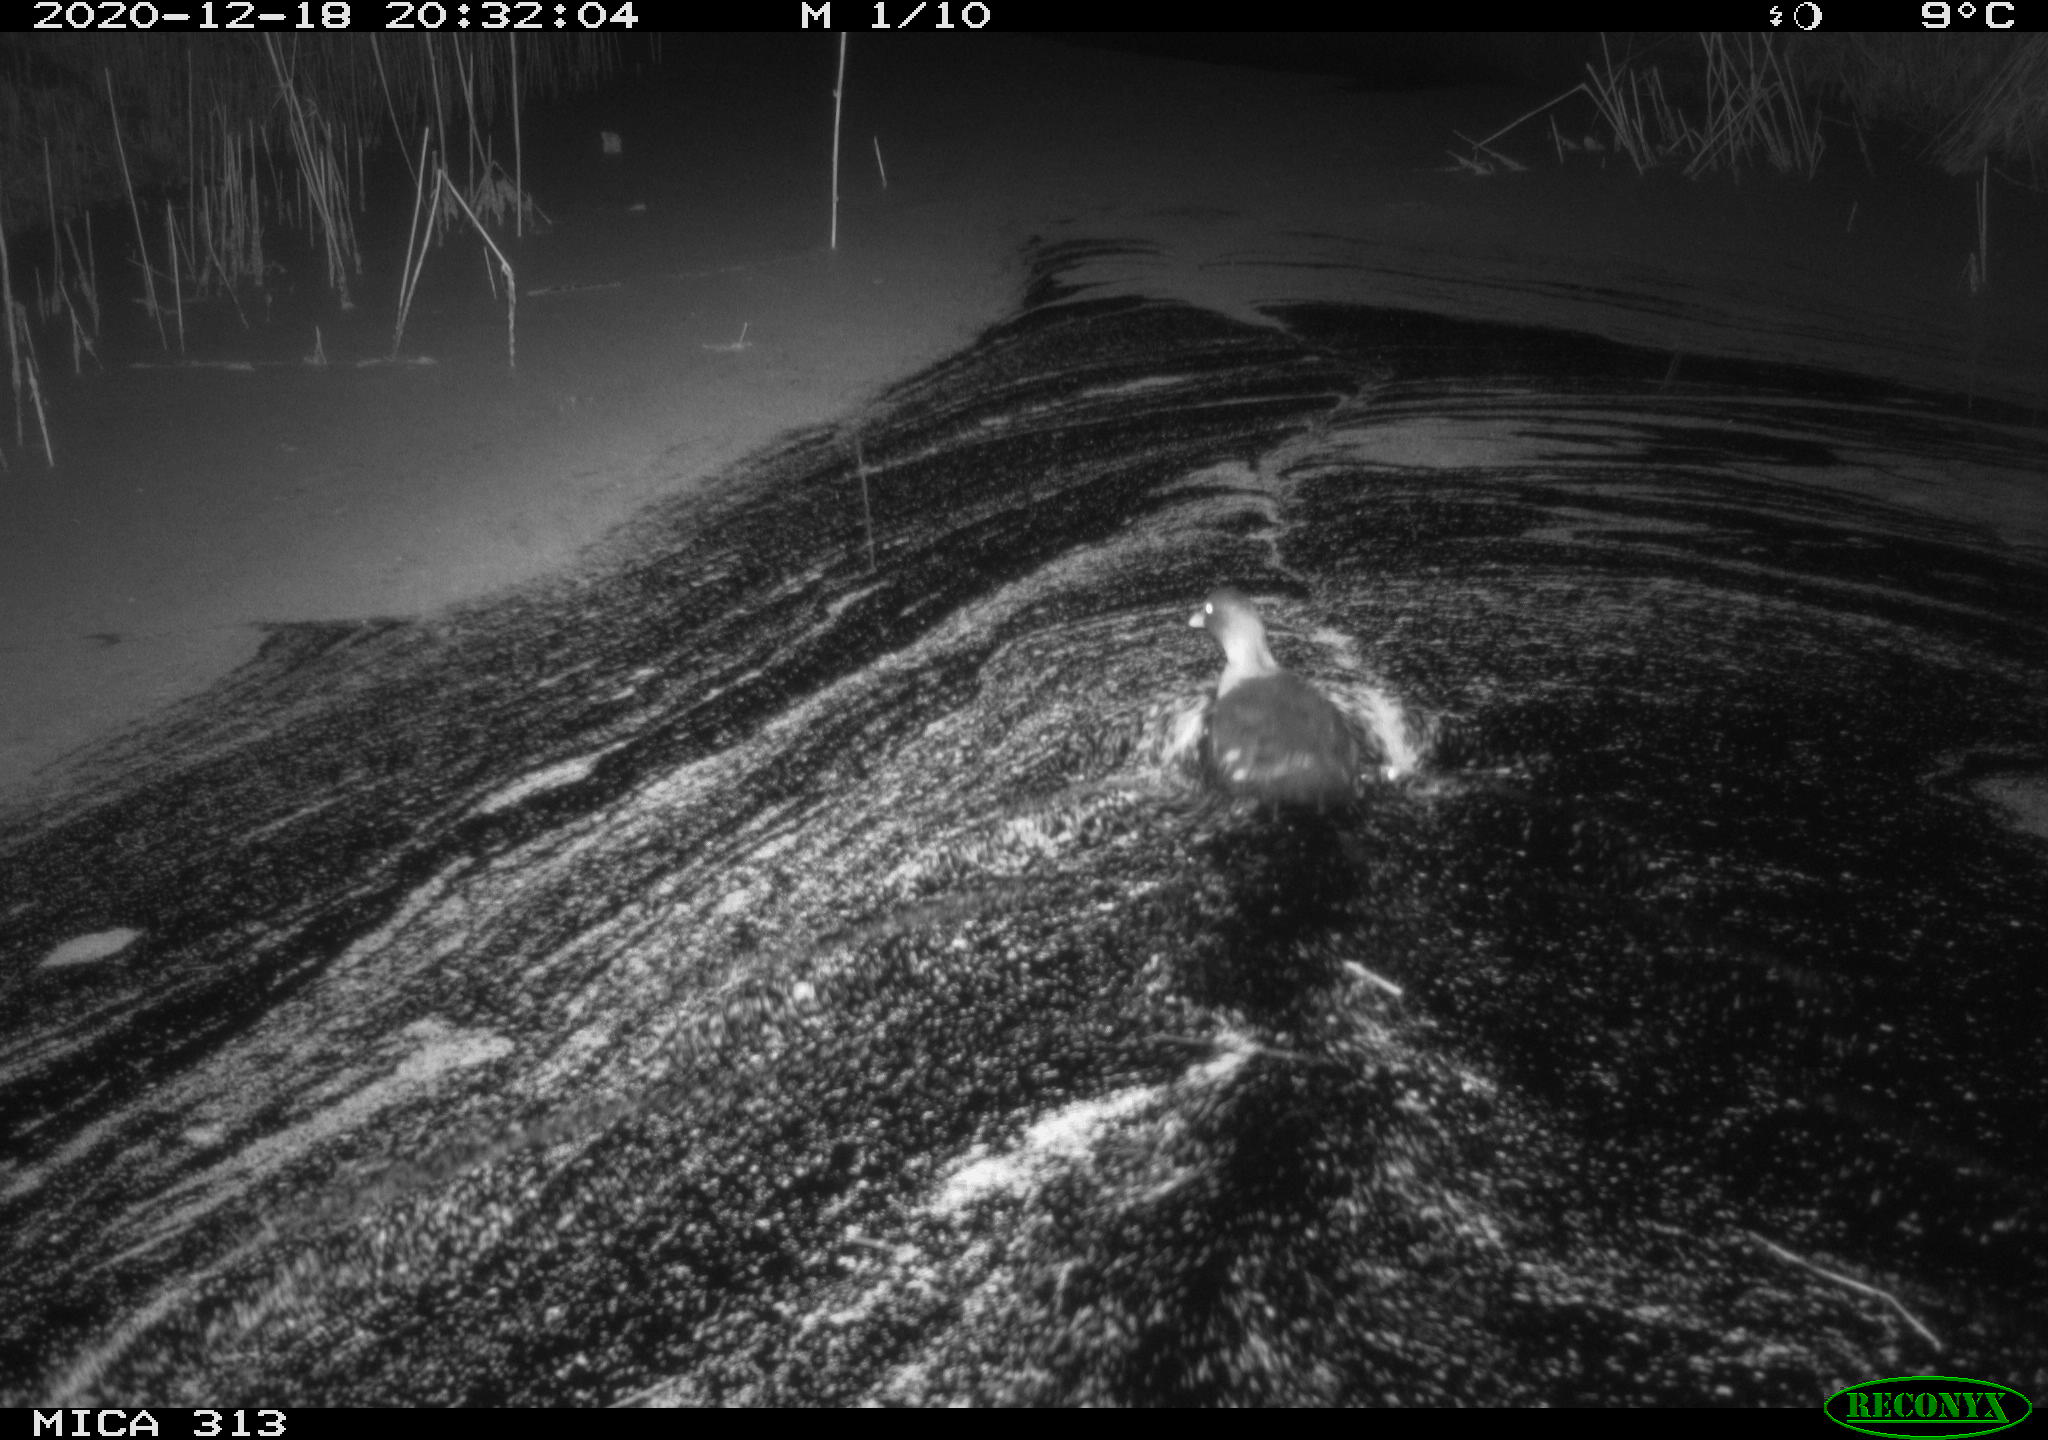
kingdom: Animalia
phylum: Chordata
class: Aves
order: Gruiformes
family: Rallidae
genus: Gallinula
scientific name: Gallinula chloropus
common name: Common moorhen
